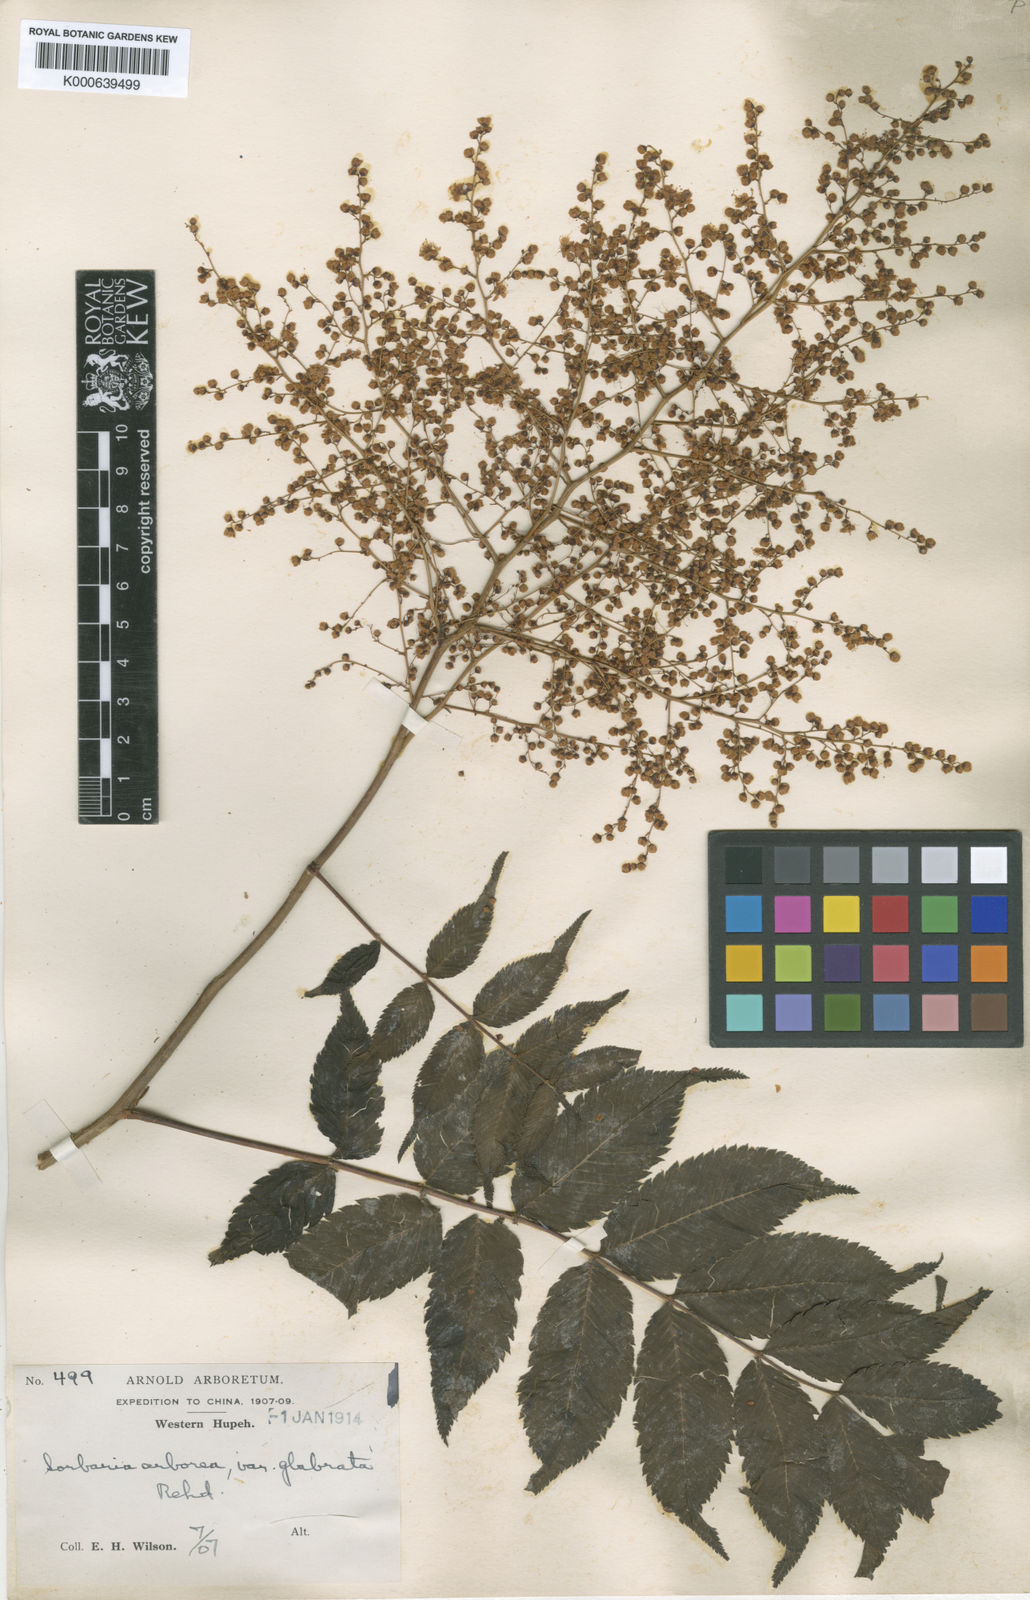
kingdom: Plantae
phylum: Tracheophyta
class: Magnoliopsida
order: Rosales
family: Rosaceae
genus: Sorbaria
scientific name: Sorbaria kirilowii
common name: Chinese sorbaria
